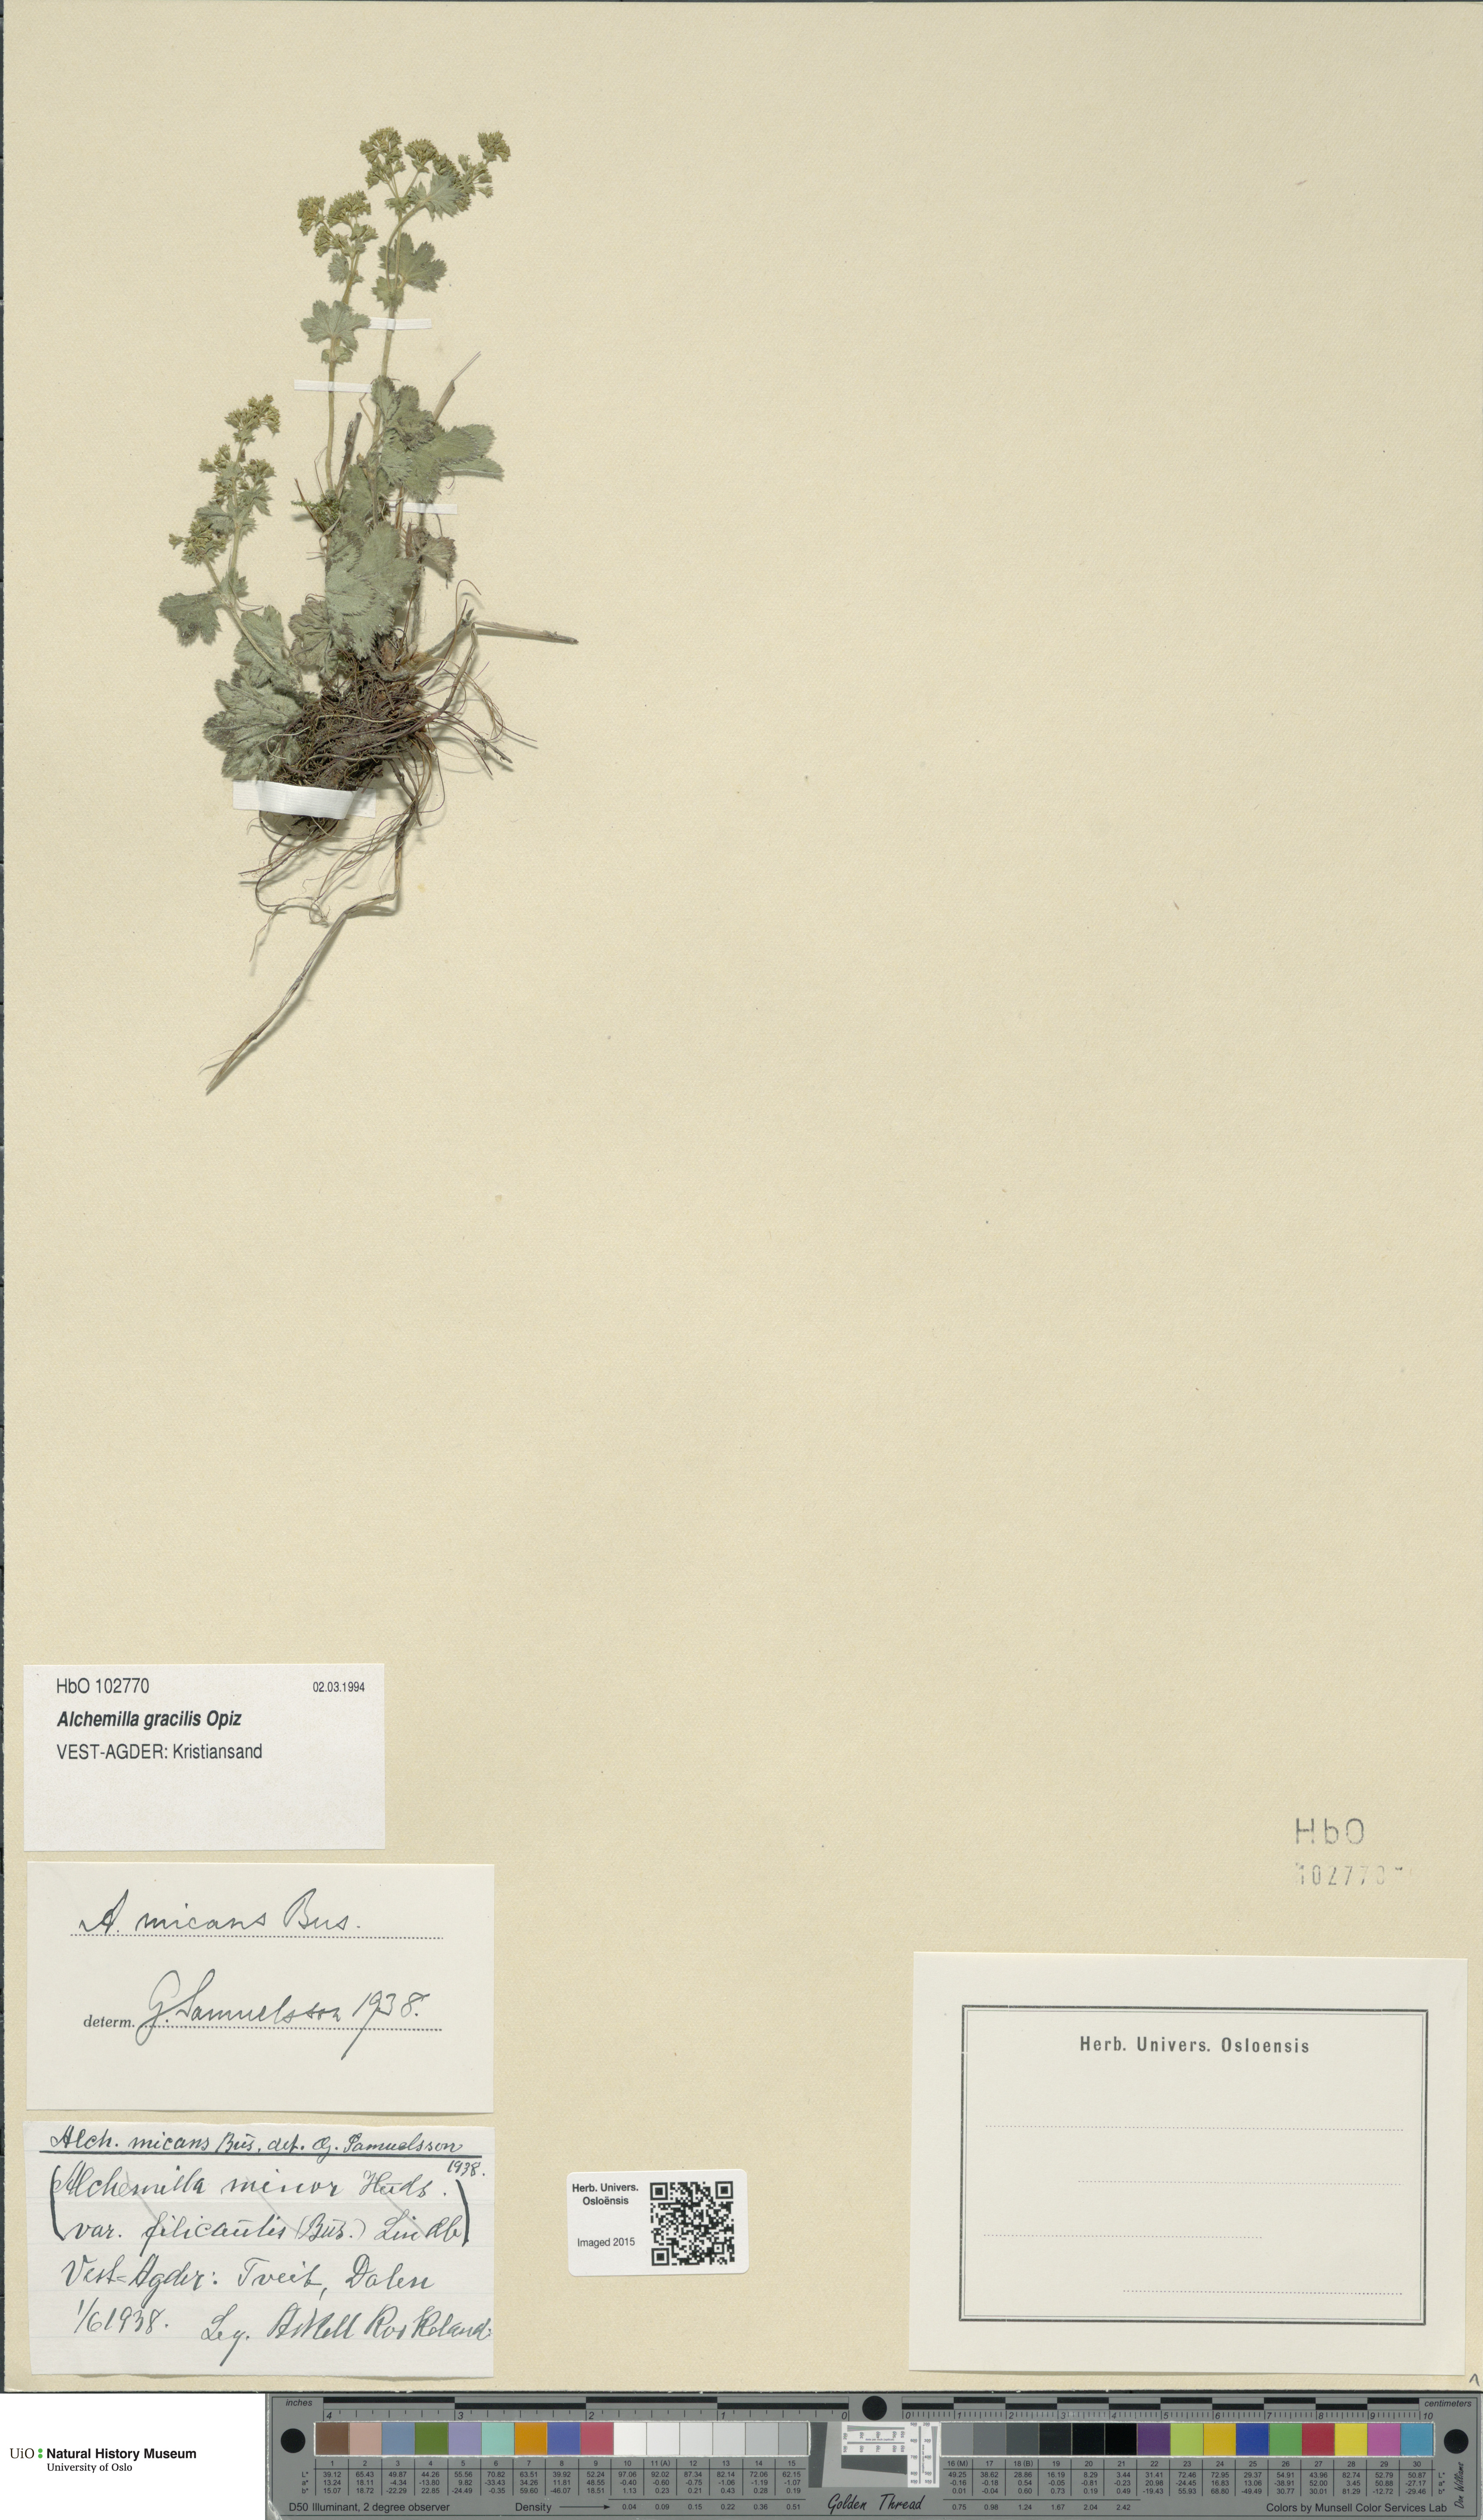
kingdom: Plantae
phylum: Tracheophyta
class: Magnoliopsida
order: Rosales
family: Rosaceae
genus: Alchemilla
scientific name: Alchemilla micans
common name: Gleaming lady's mantle
